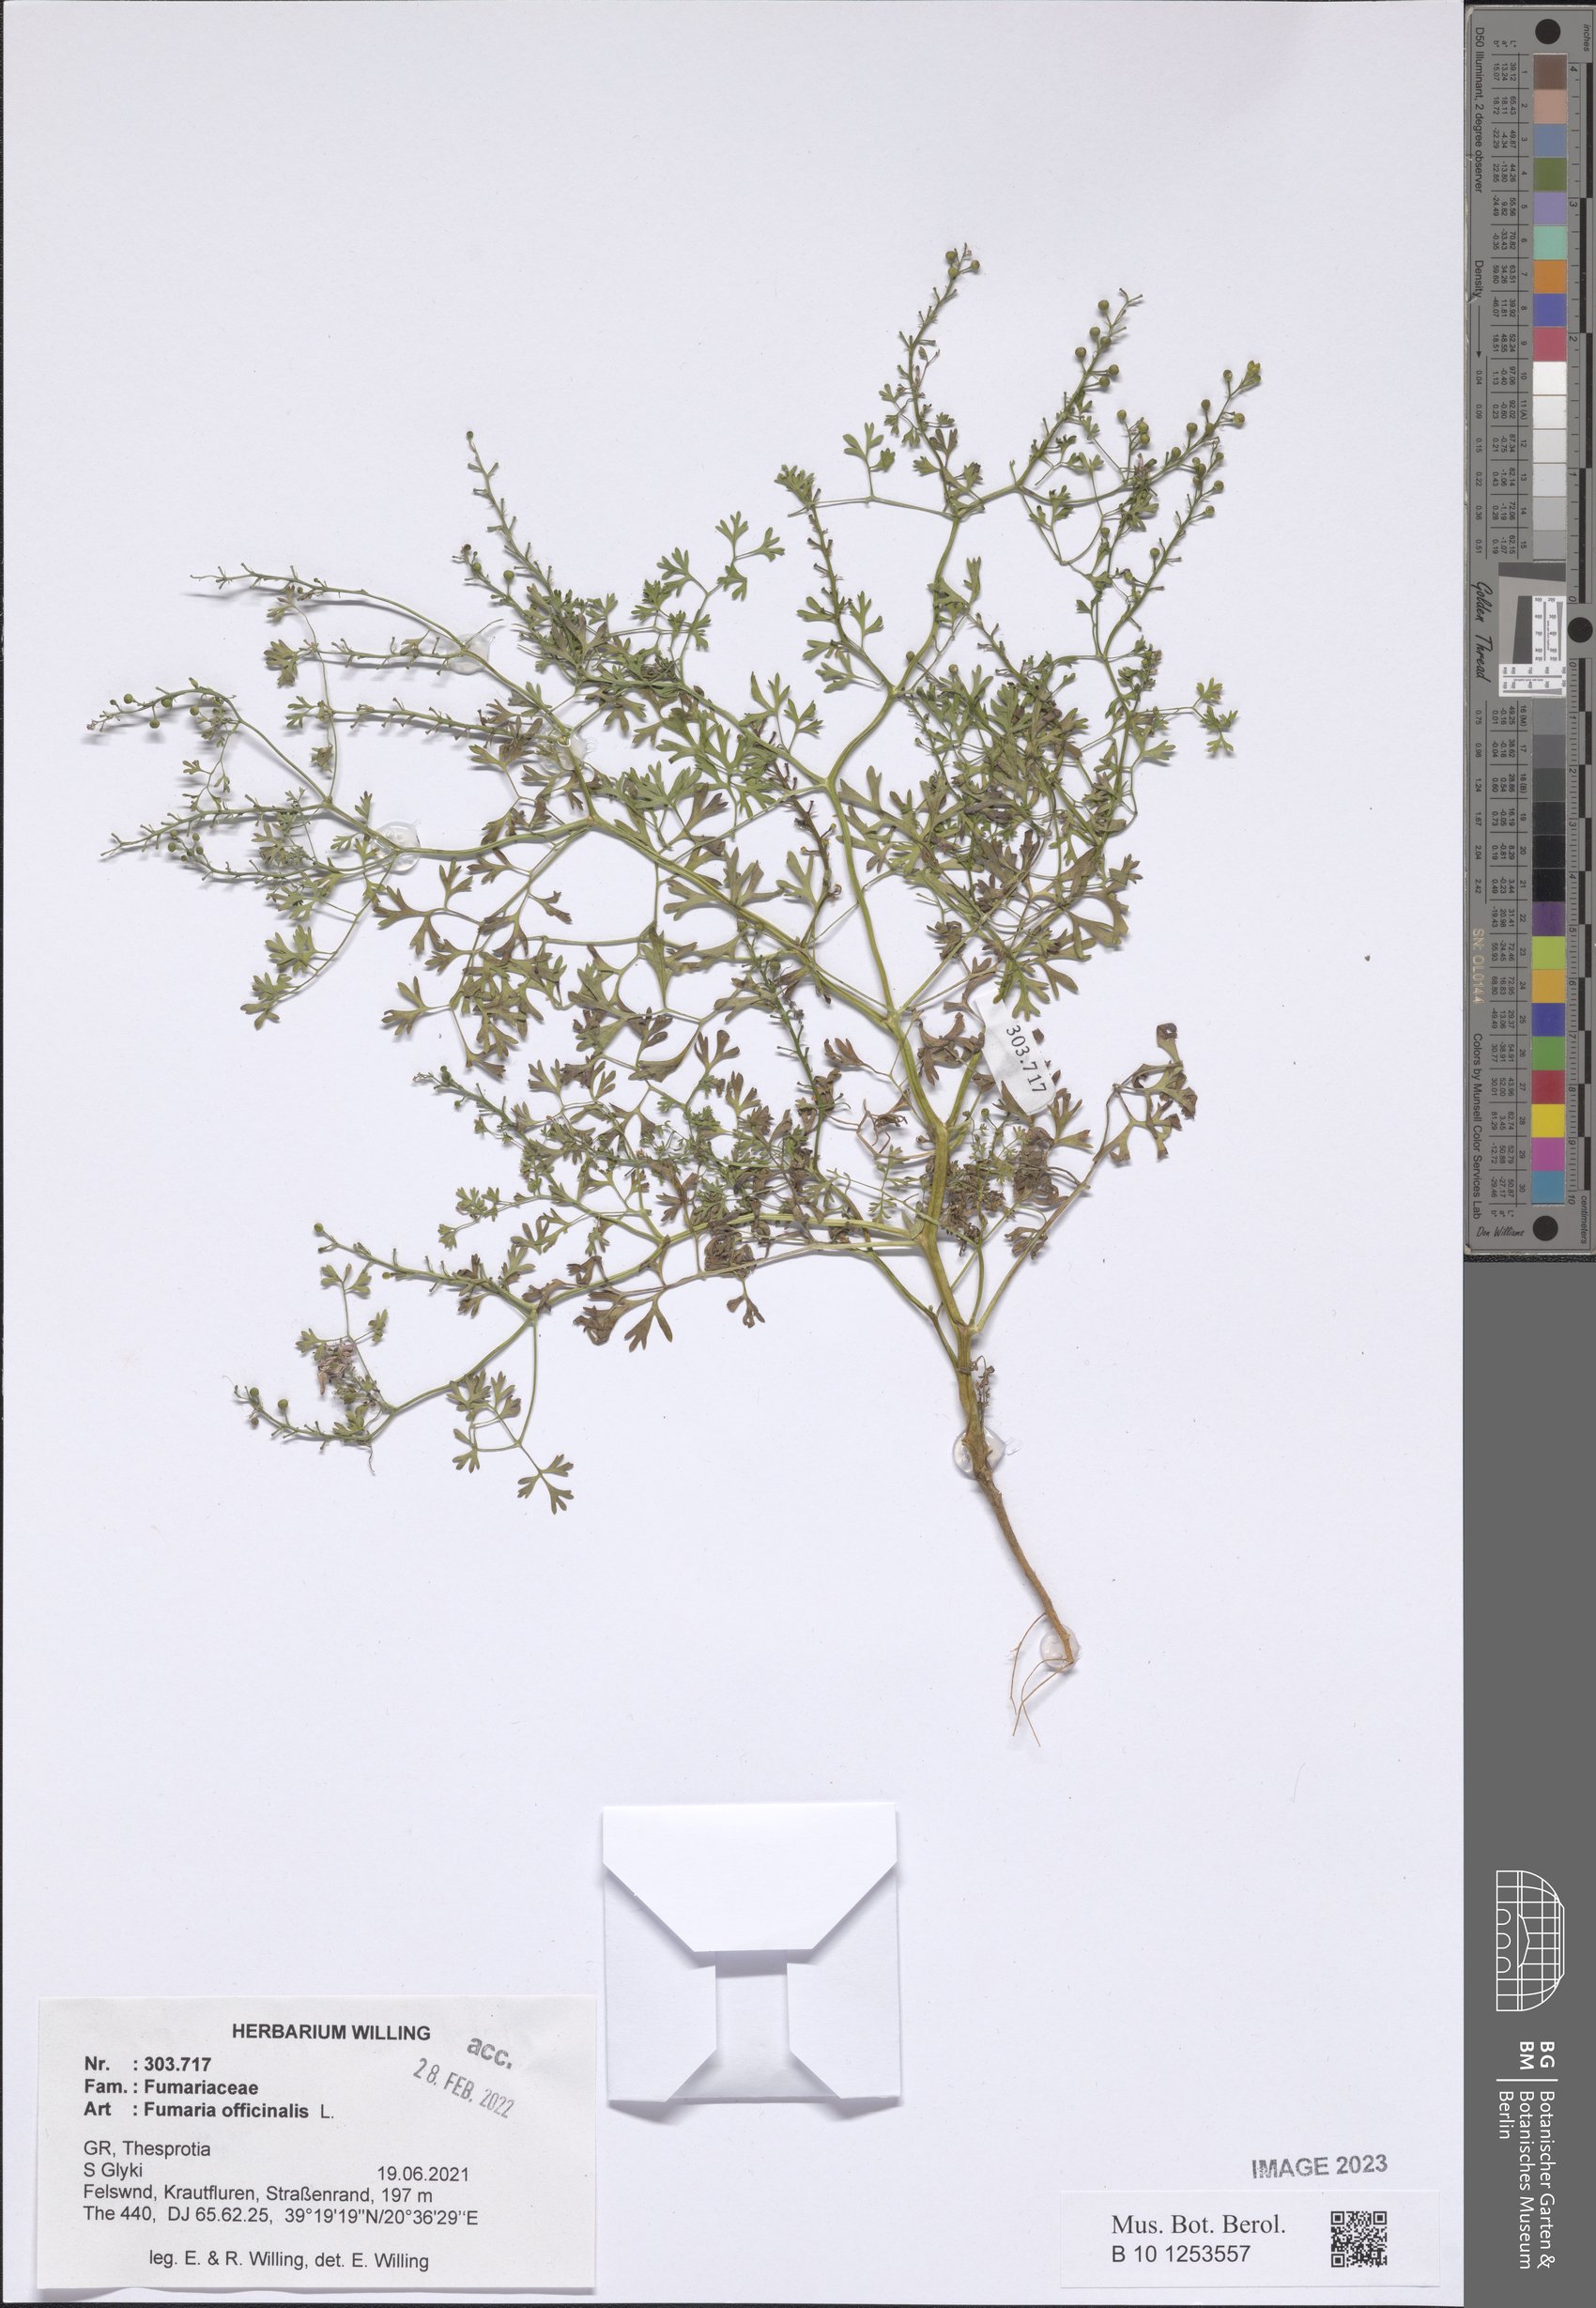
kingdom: Plantae
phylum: Tracheophyta
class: Magnoliopsida
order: Ranunculales
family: Papaveraceae
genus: Fumaria
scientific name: Fumaria officinalis
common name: Common fumitory
